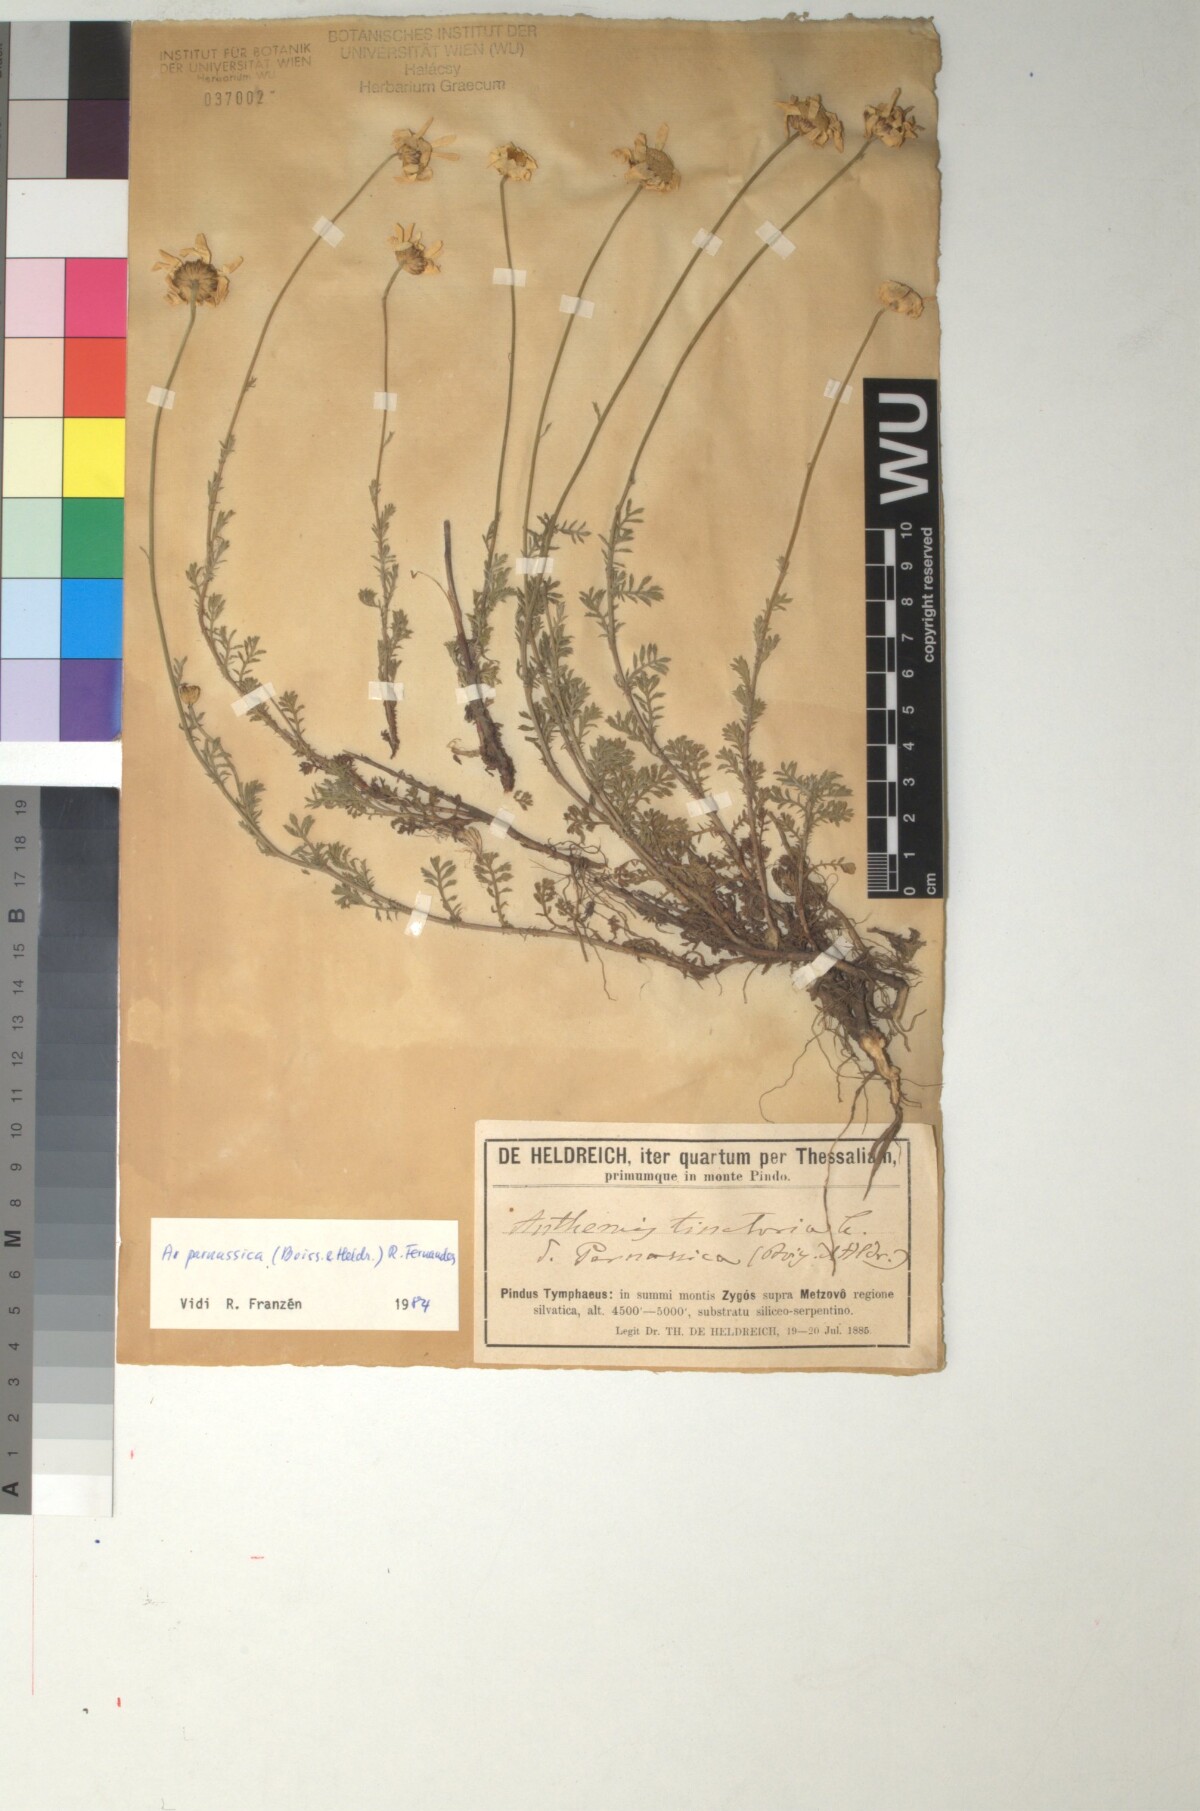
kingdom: Plantae
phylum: Tracheophyta
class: Magnoliopsida
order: Asterales
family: Asteraceae
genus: Cota
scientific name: Cota tinctoria
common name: Golden chamomile
